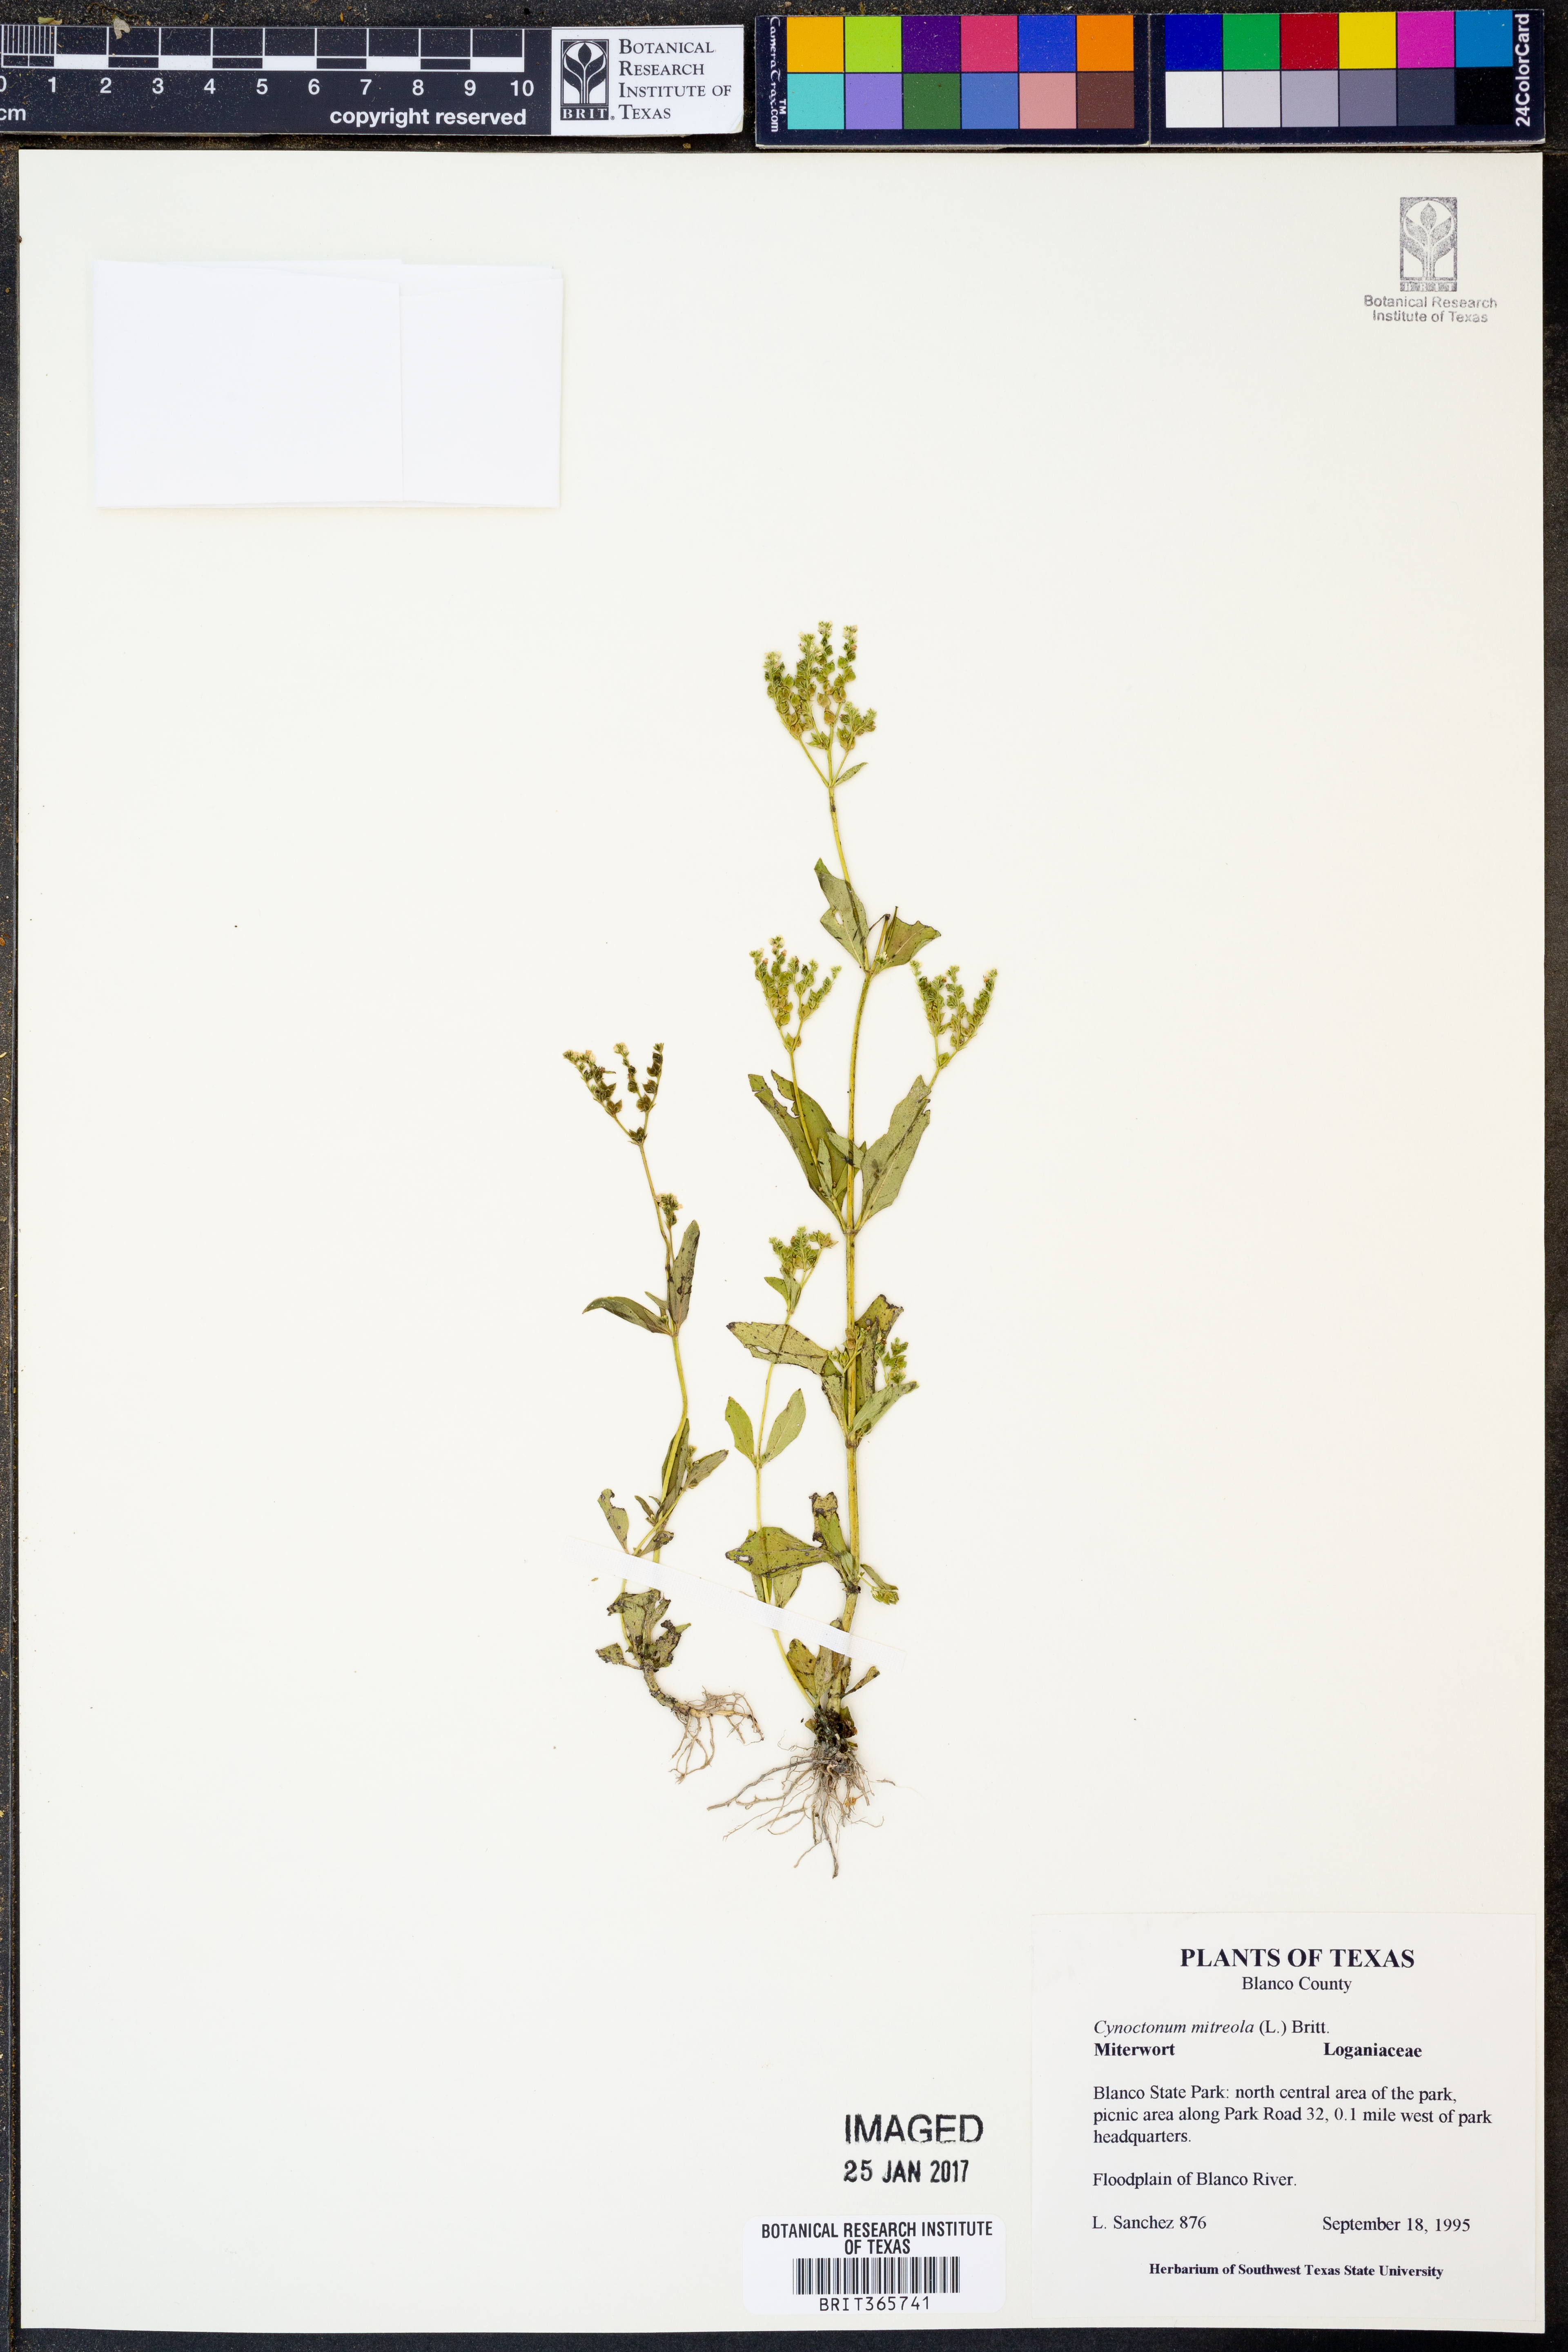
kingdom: Plantae
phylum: Tracheophyta
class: Magnoliopsida
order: Gentianales
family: Loganiaceae
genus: Mitreola
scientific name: Mitreola petiolata
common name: Lax hornpod
